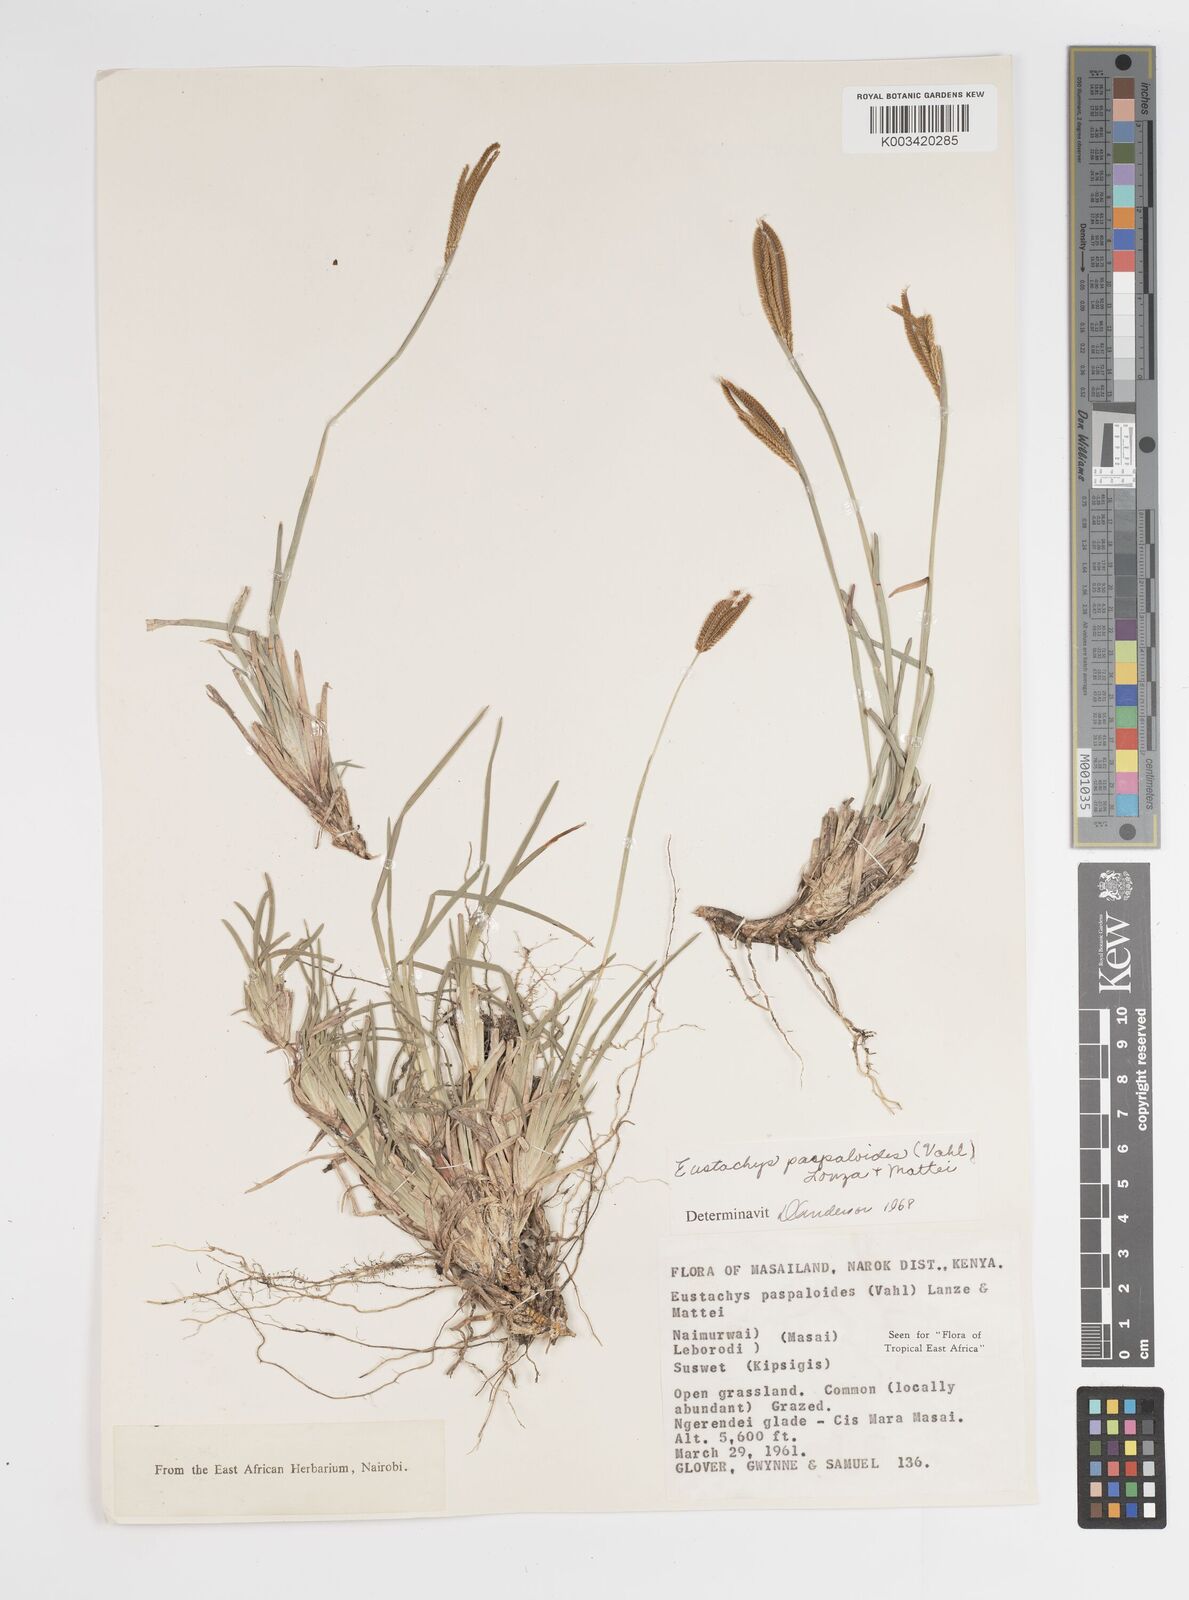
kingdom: Plantae
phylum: Tracheophyta
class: Liliopsida
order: Poales
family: Poaceae
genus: Eustachys
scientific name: Eustachys paspaloides
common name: Caribbean fingergrass
